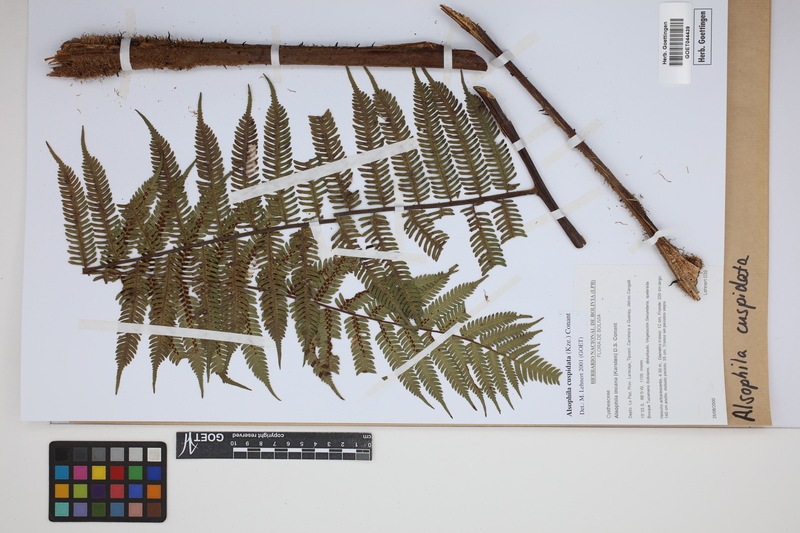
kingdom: Plantae
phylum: Tracheophyta
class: Polypodiopsida
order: Cyatheales
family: Cyatheaceae
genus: Alsophila
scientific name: Alsophila cuspidata
